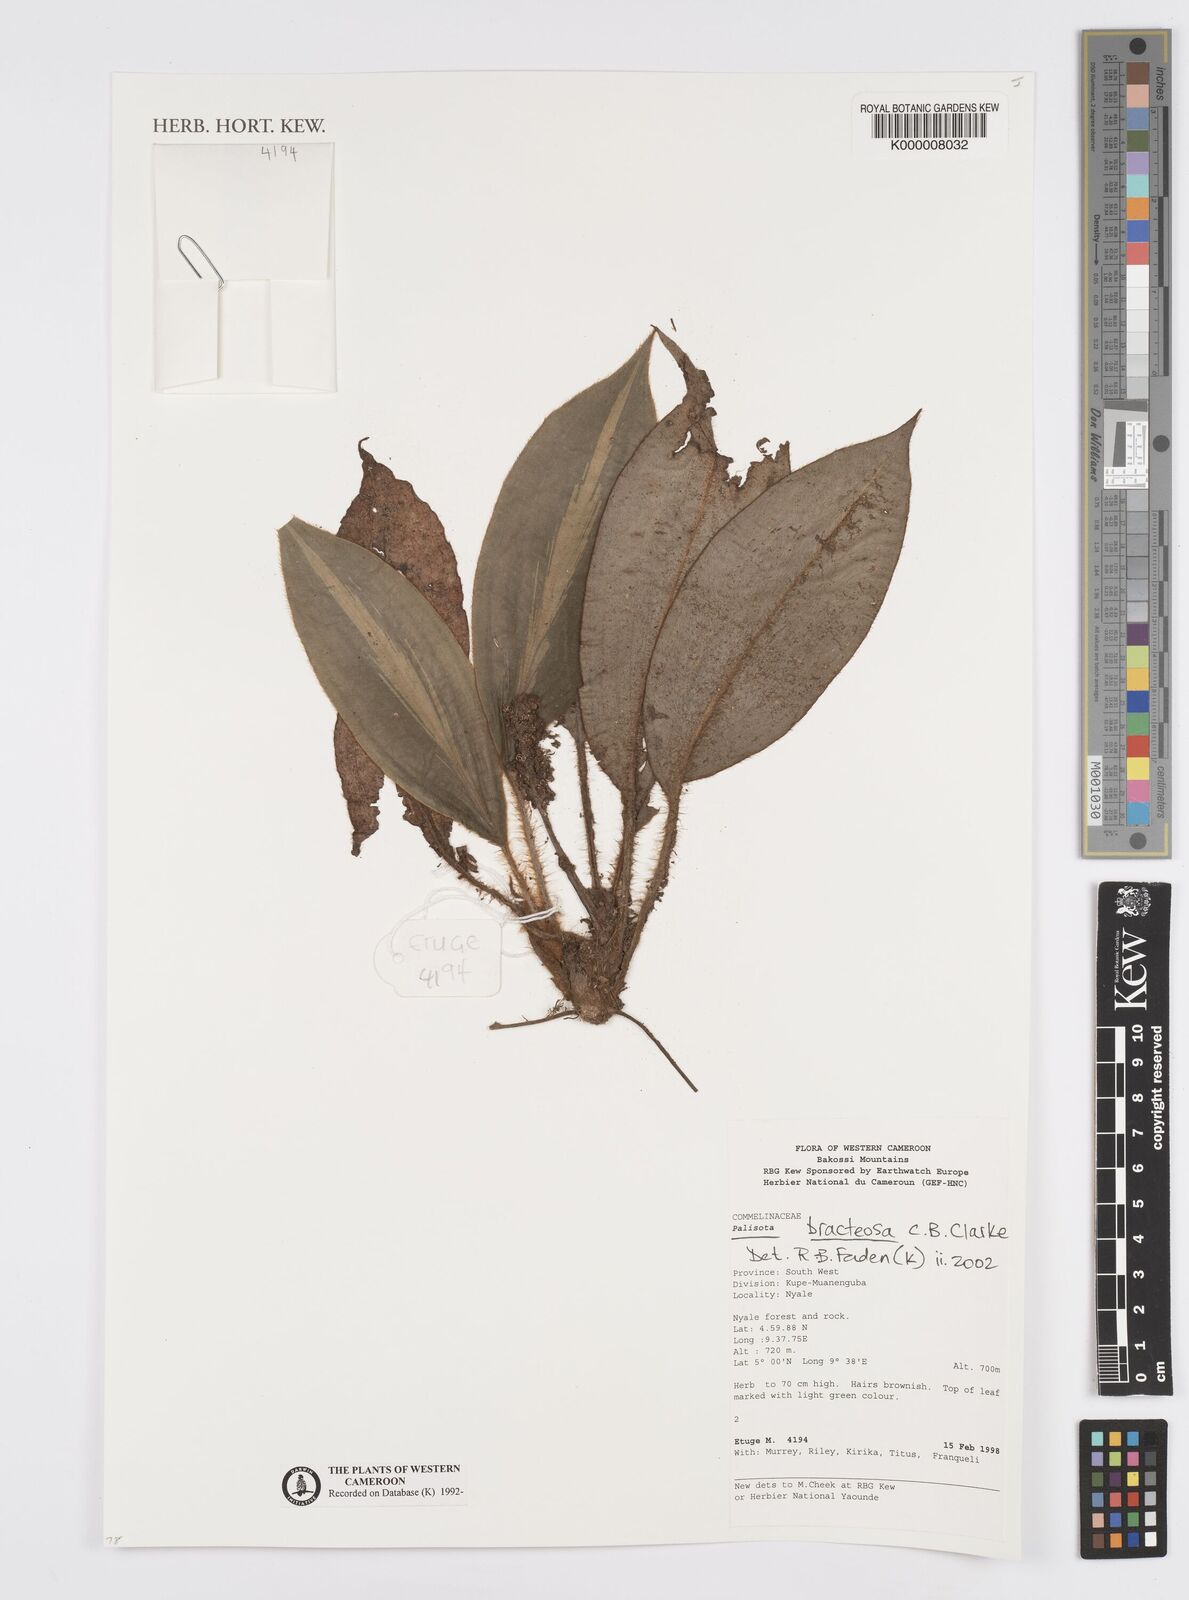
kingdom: Plantae
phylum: Tracheophyta
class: Liliopsida
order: Commelinales
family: Commelinaceae
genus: Palisota
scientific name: Palisota bracteosa
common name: Palisota
